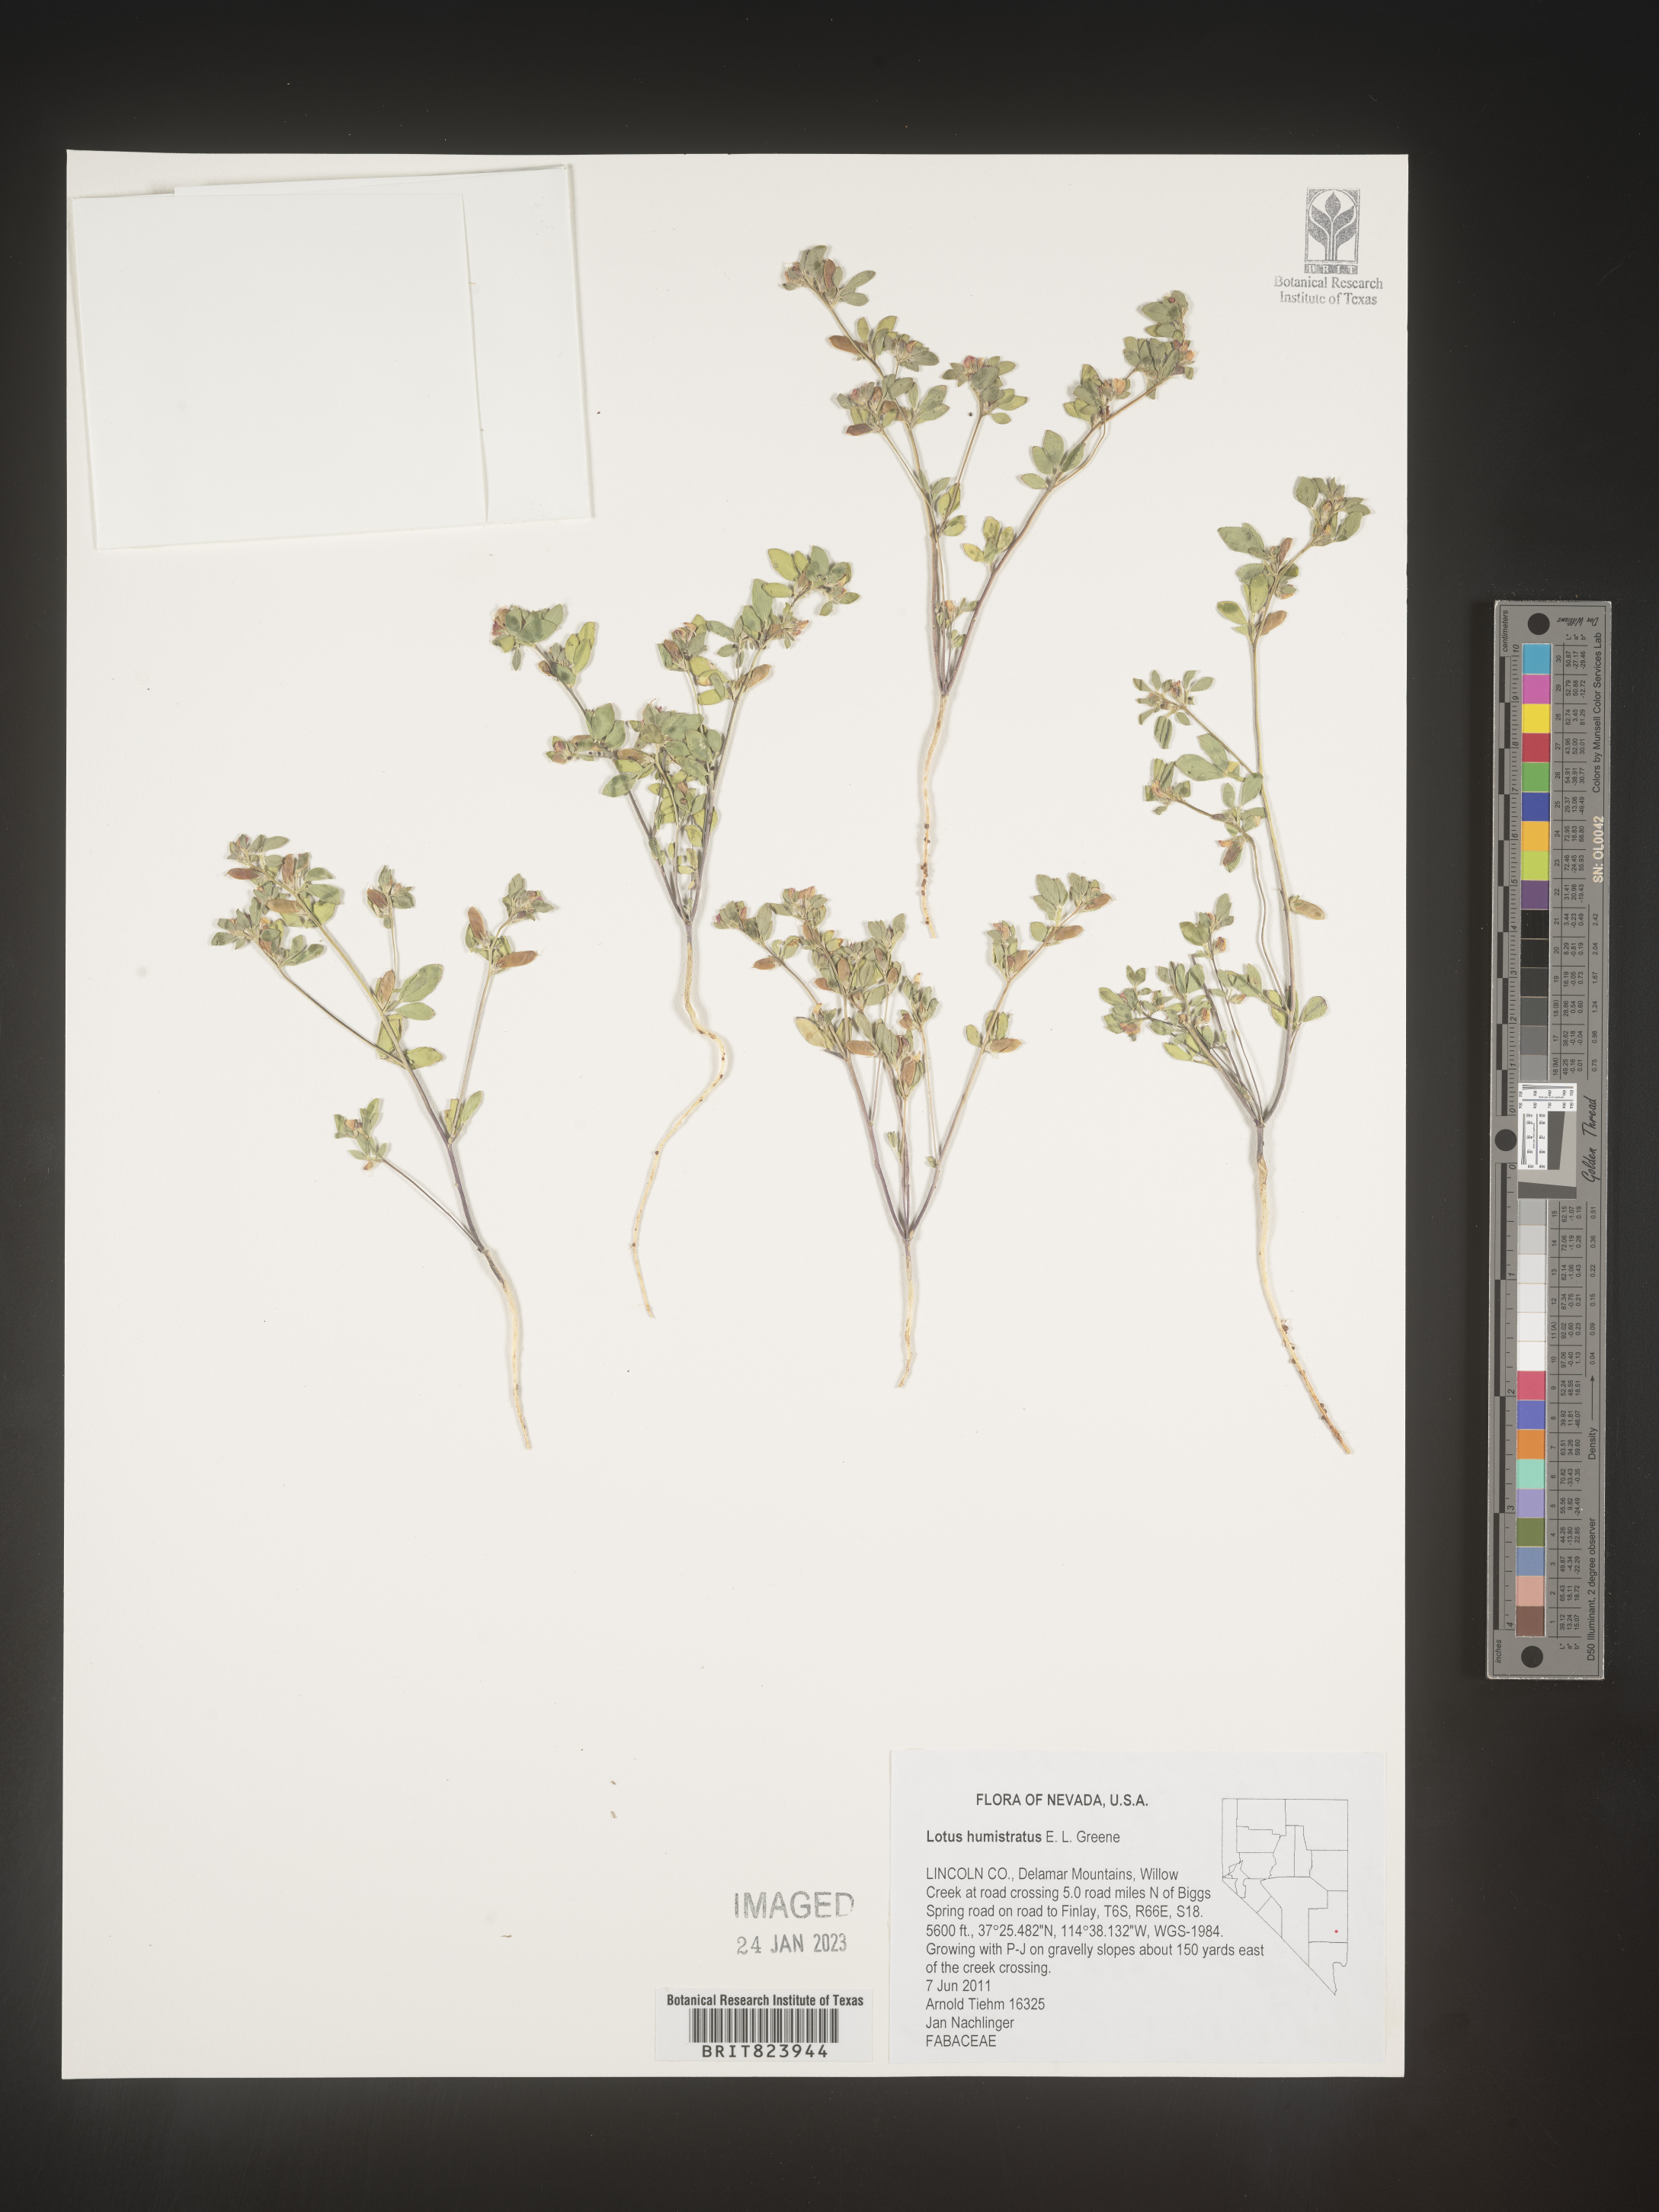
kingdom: Plantae
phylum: Tracheophyta
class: Magnoliopsida
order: Fabales
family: Fabaceae
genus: Acmispon
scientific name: Acmispon brachycarpus
